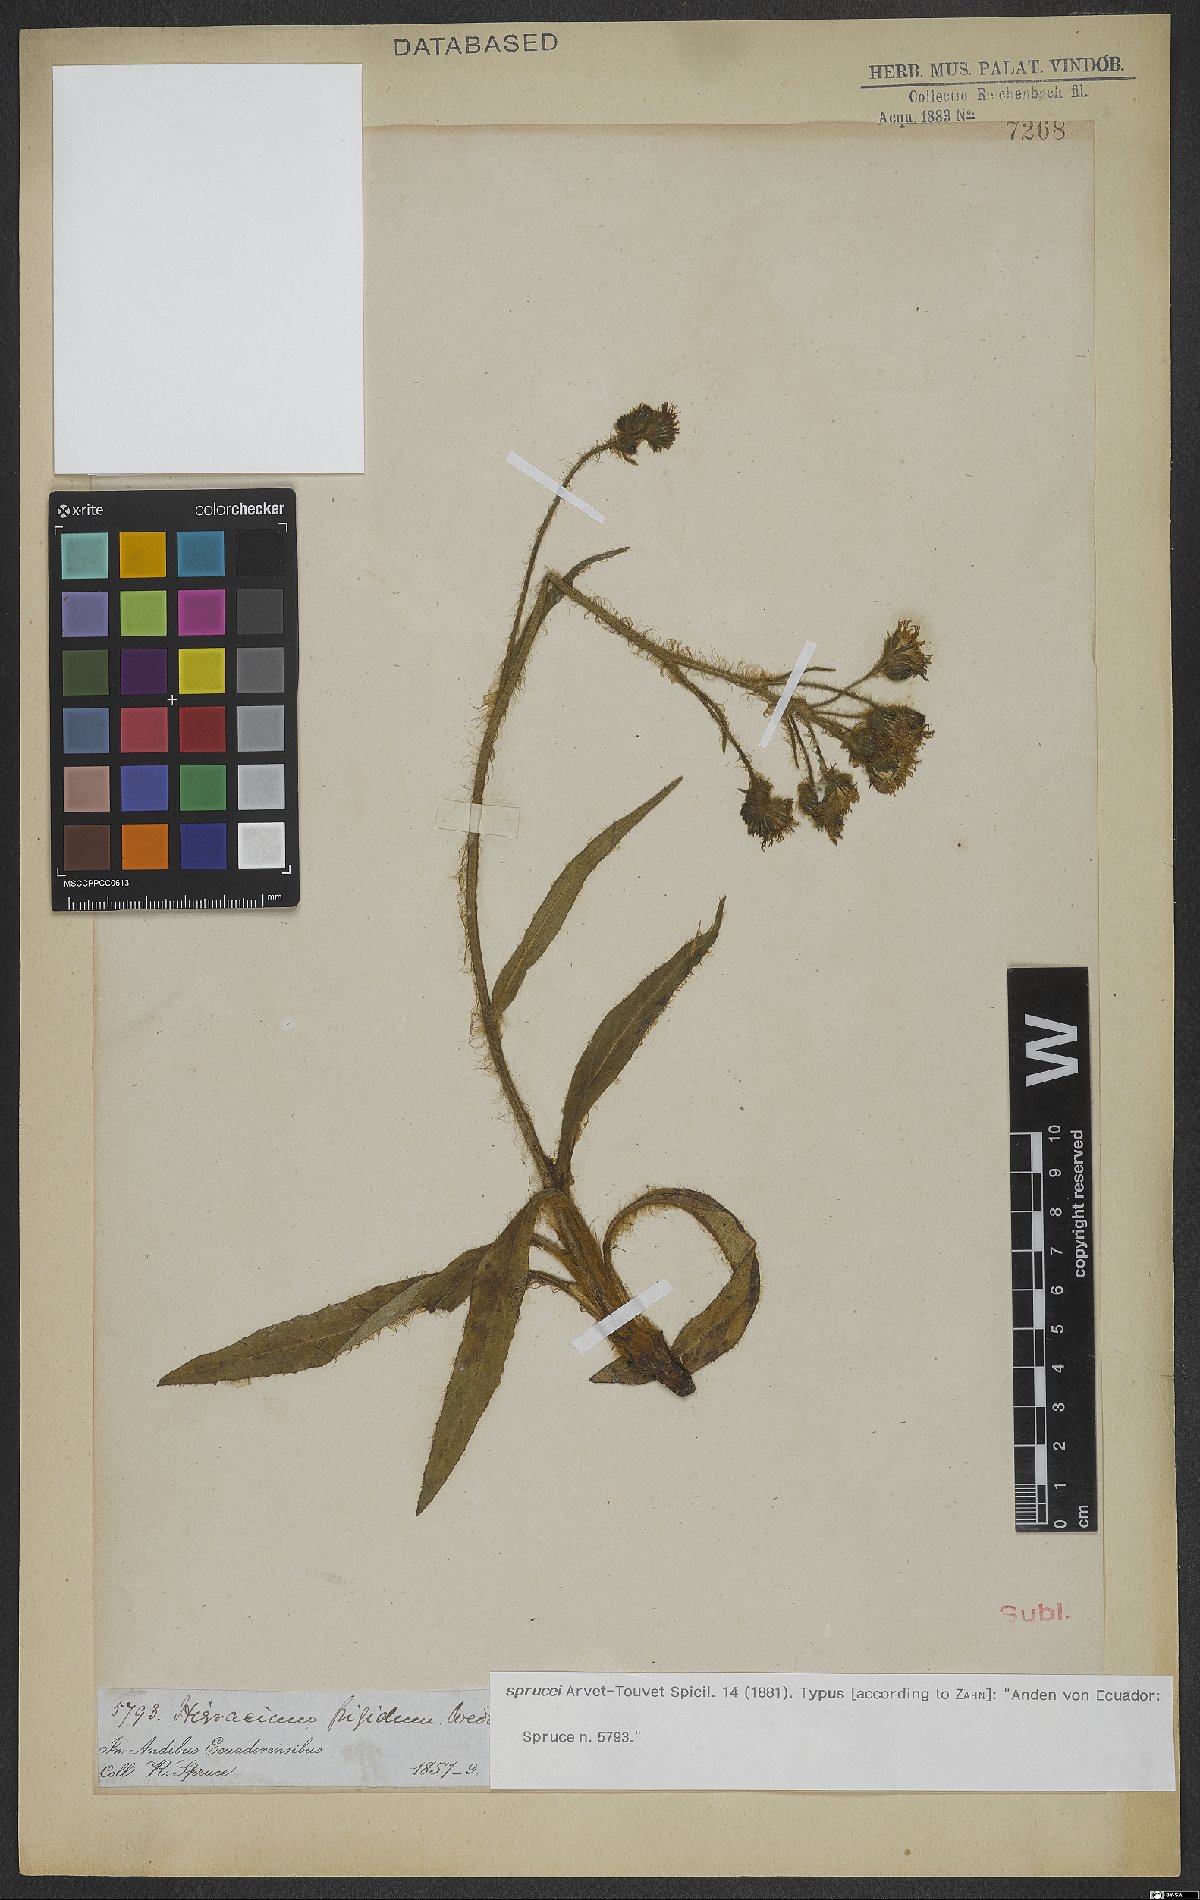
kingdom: Plantae
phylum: Tracheophyta
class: Magnoliopsida
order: Asterales
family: Asteraceae
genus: Hieracium
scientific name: Hieracium sprucei
